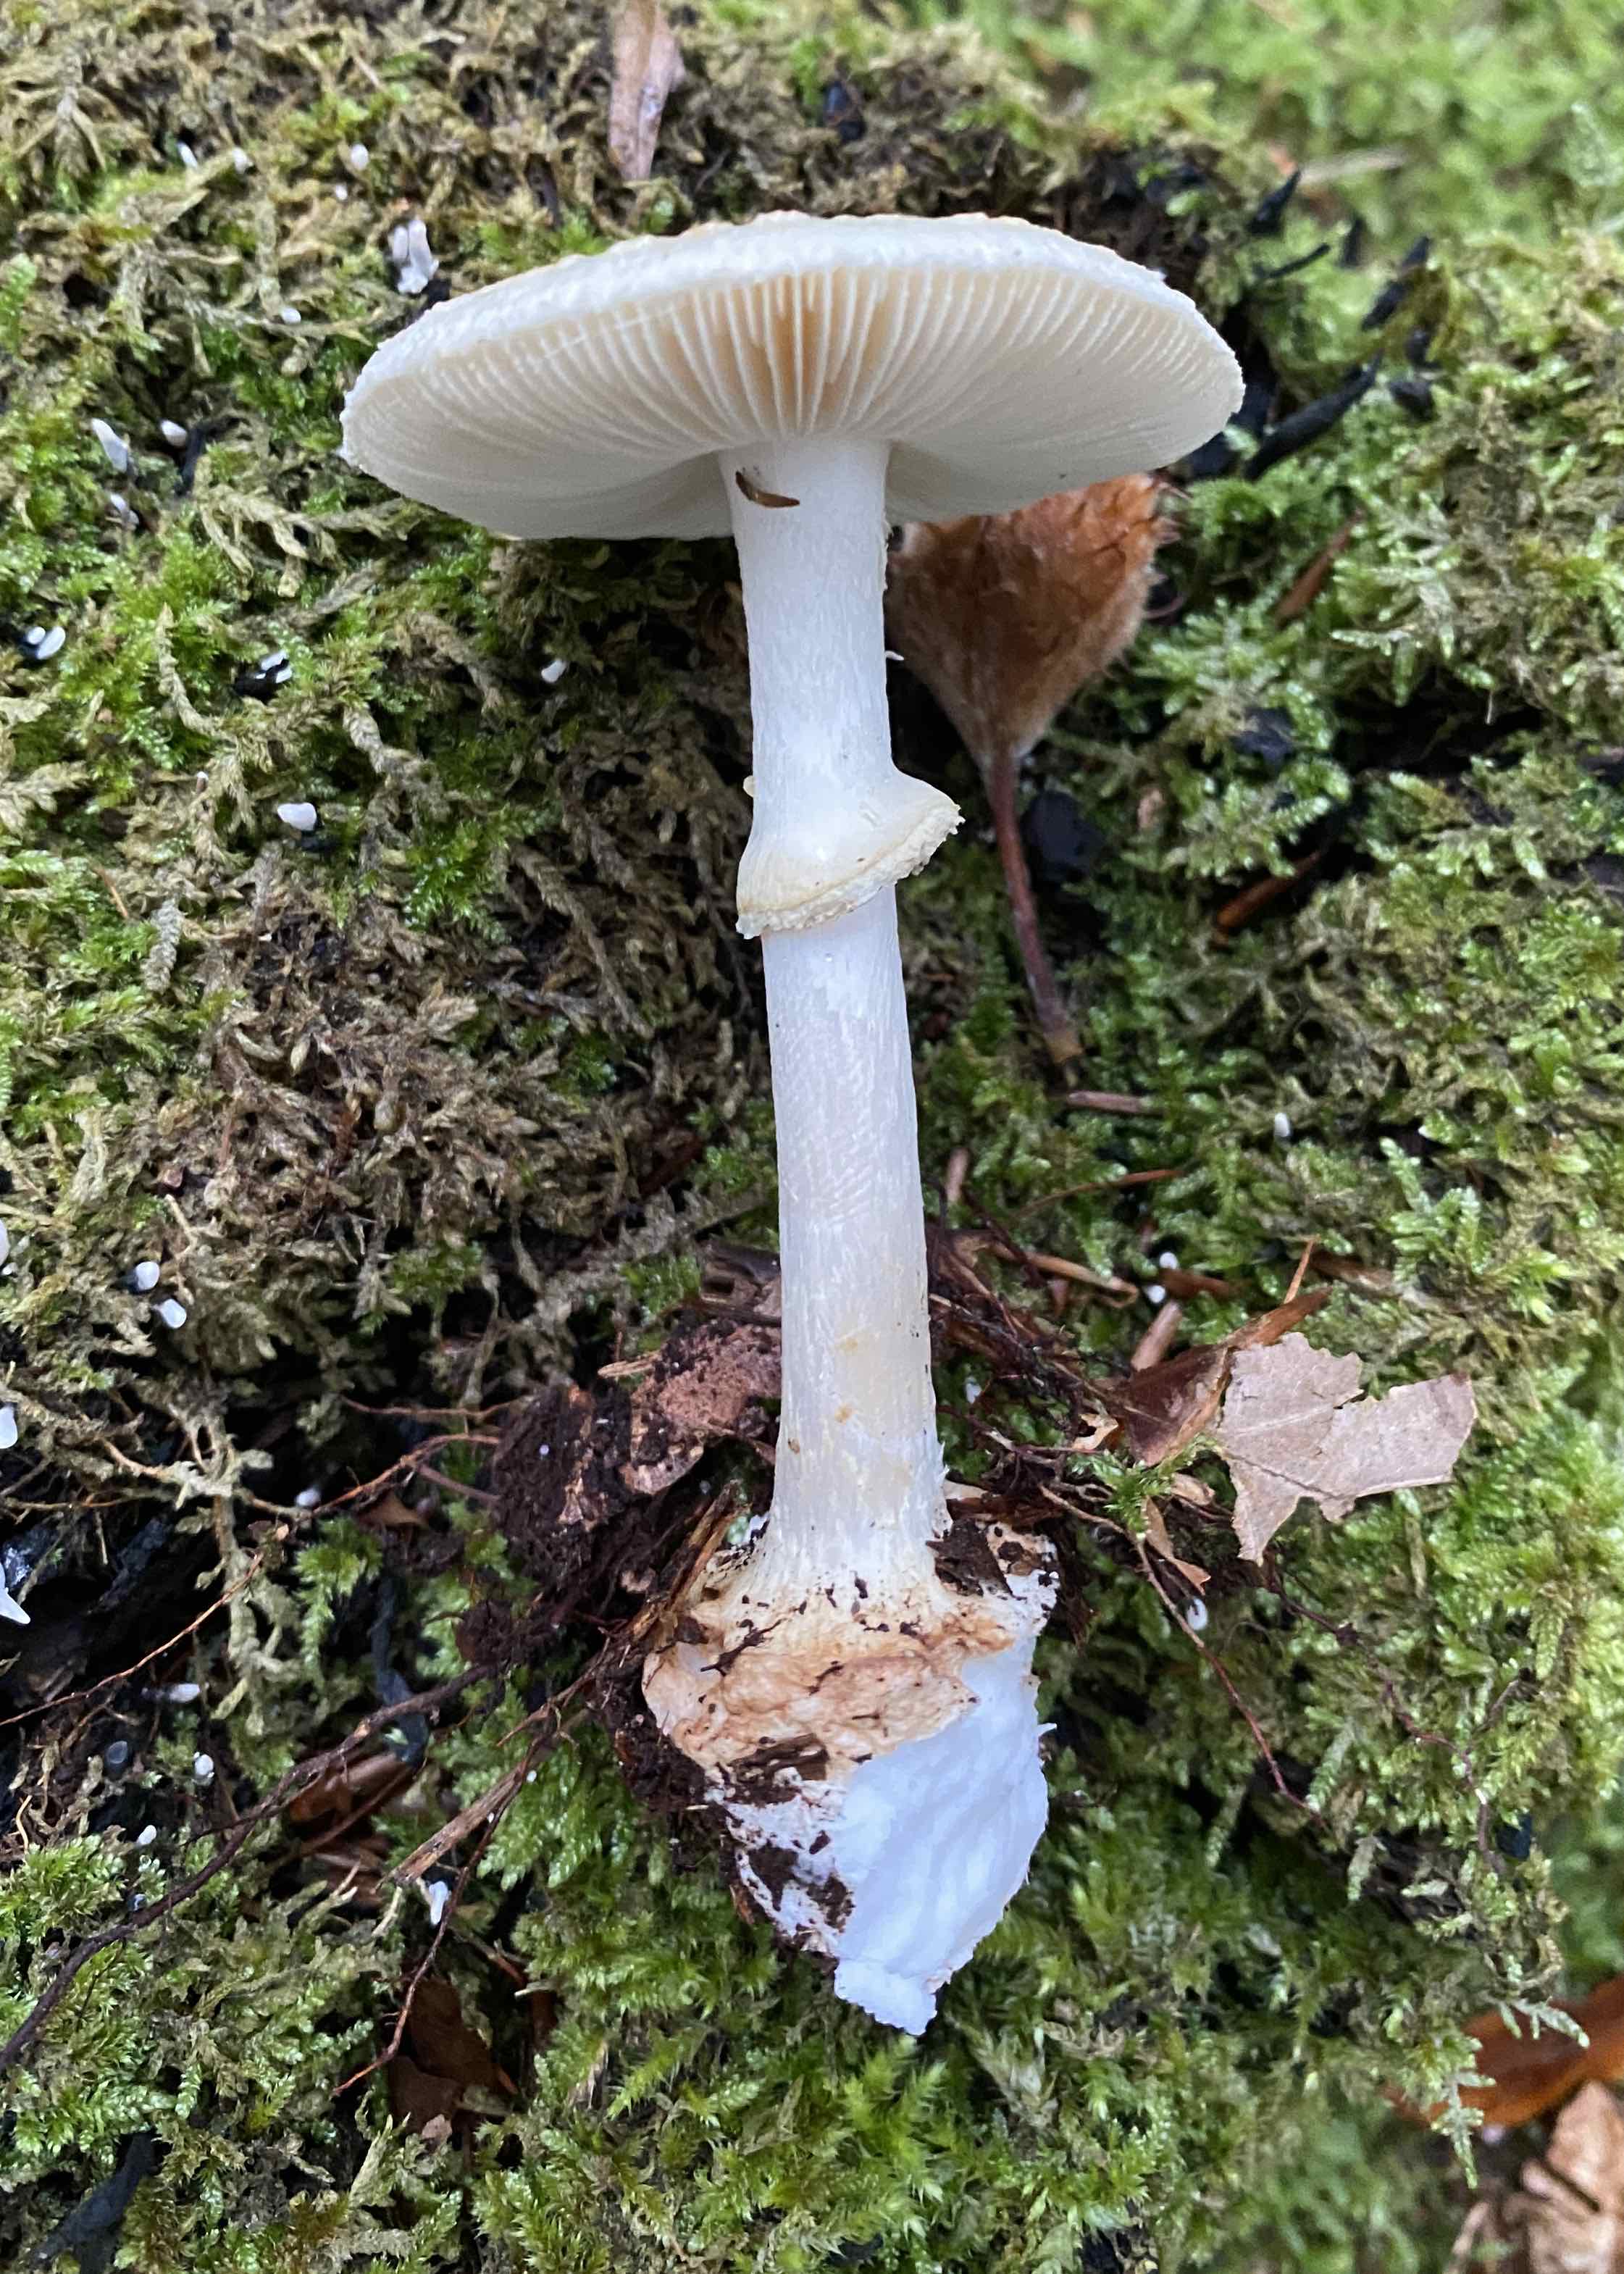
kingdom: Fungi
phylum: Basidiomycota
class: Agaricomycetes
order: Agaricales
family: Amanitaceae
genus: Amanita
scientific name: Amanita citrina
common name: kugleknoldet fluesvamp
